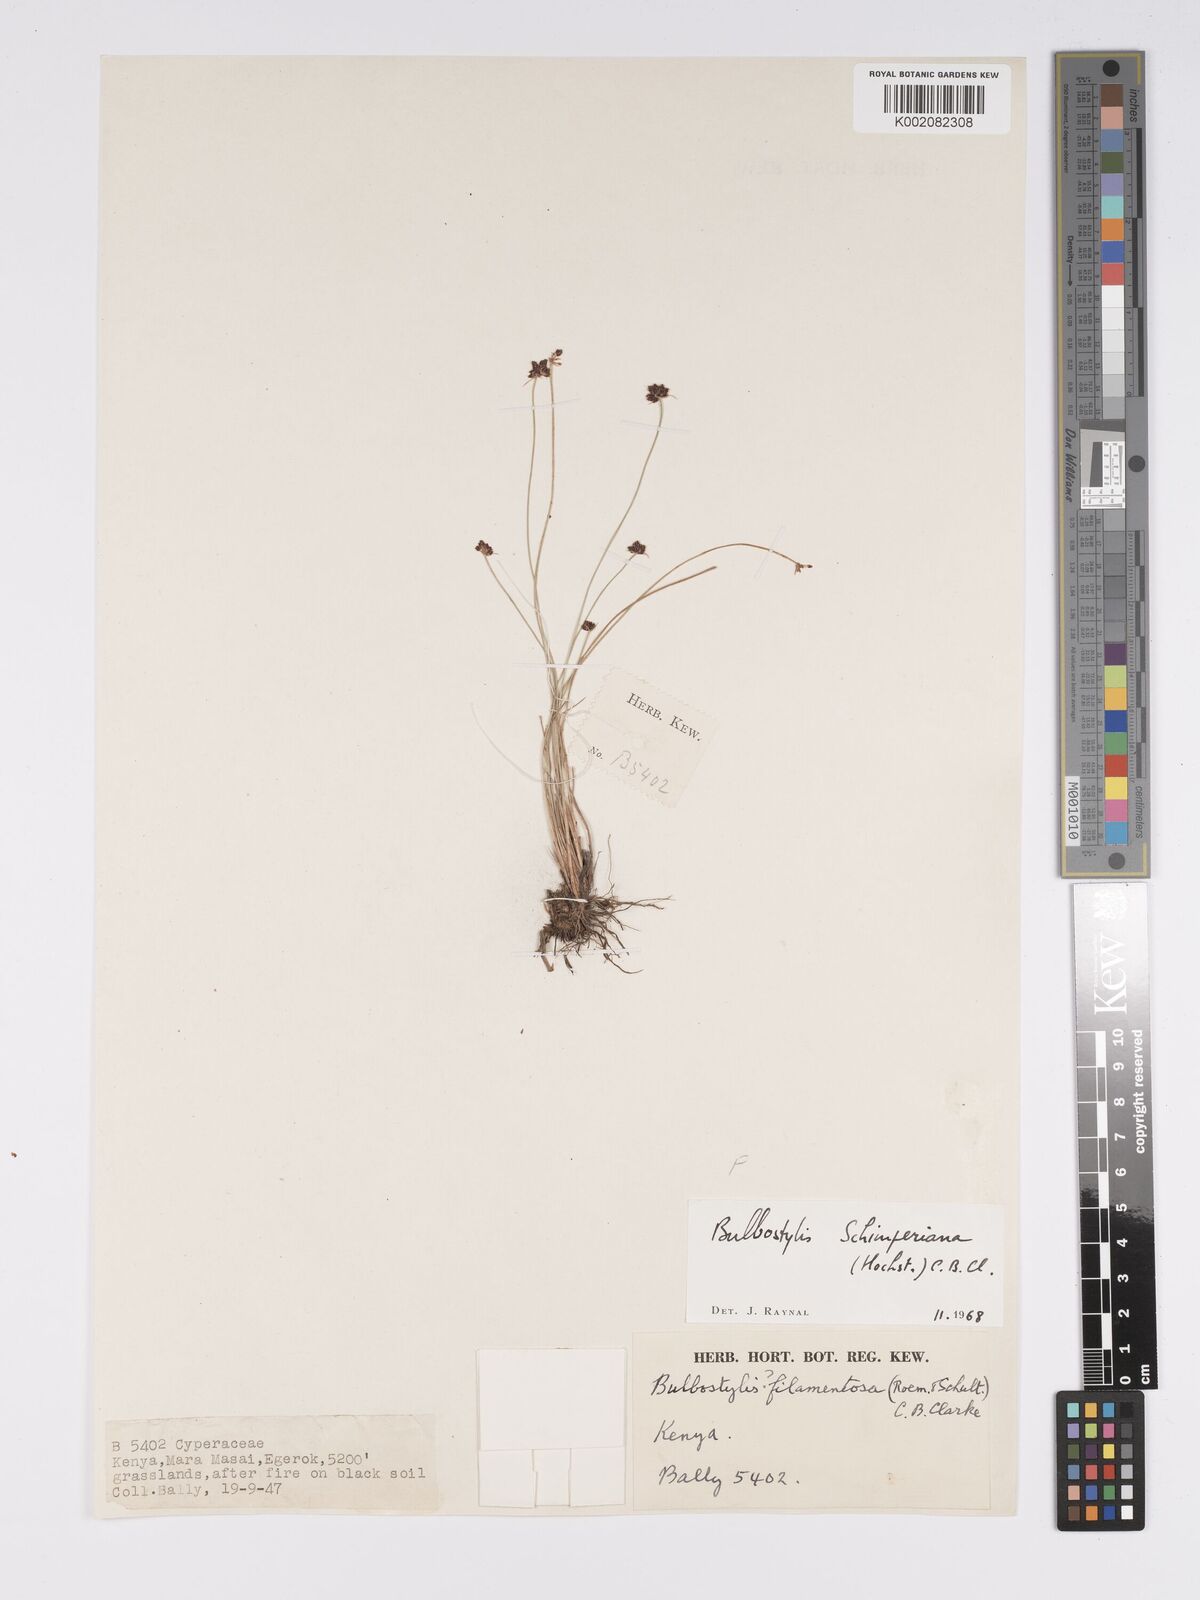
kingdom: Plantae
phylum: Tracheophyta
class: Liliopsida
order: Poales
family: Cyperaceae
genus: Bulbostylis
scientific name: Bulbostylis schimperiana
